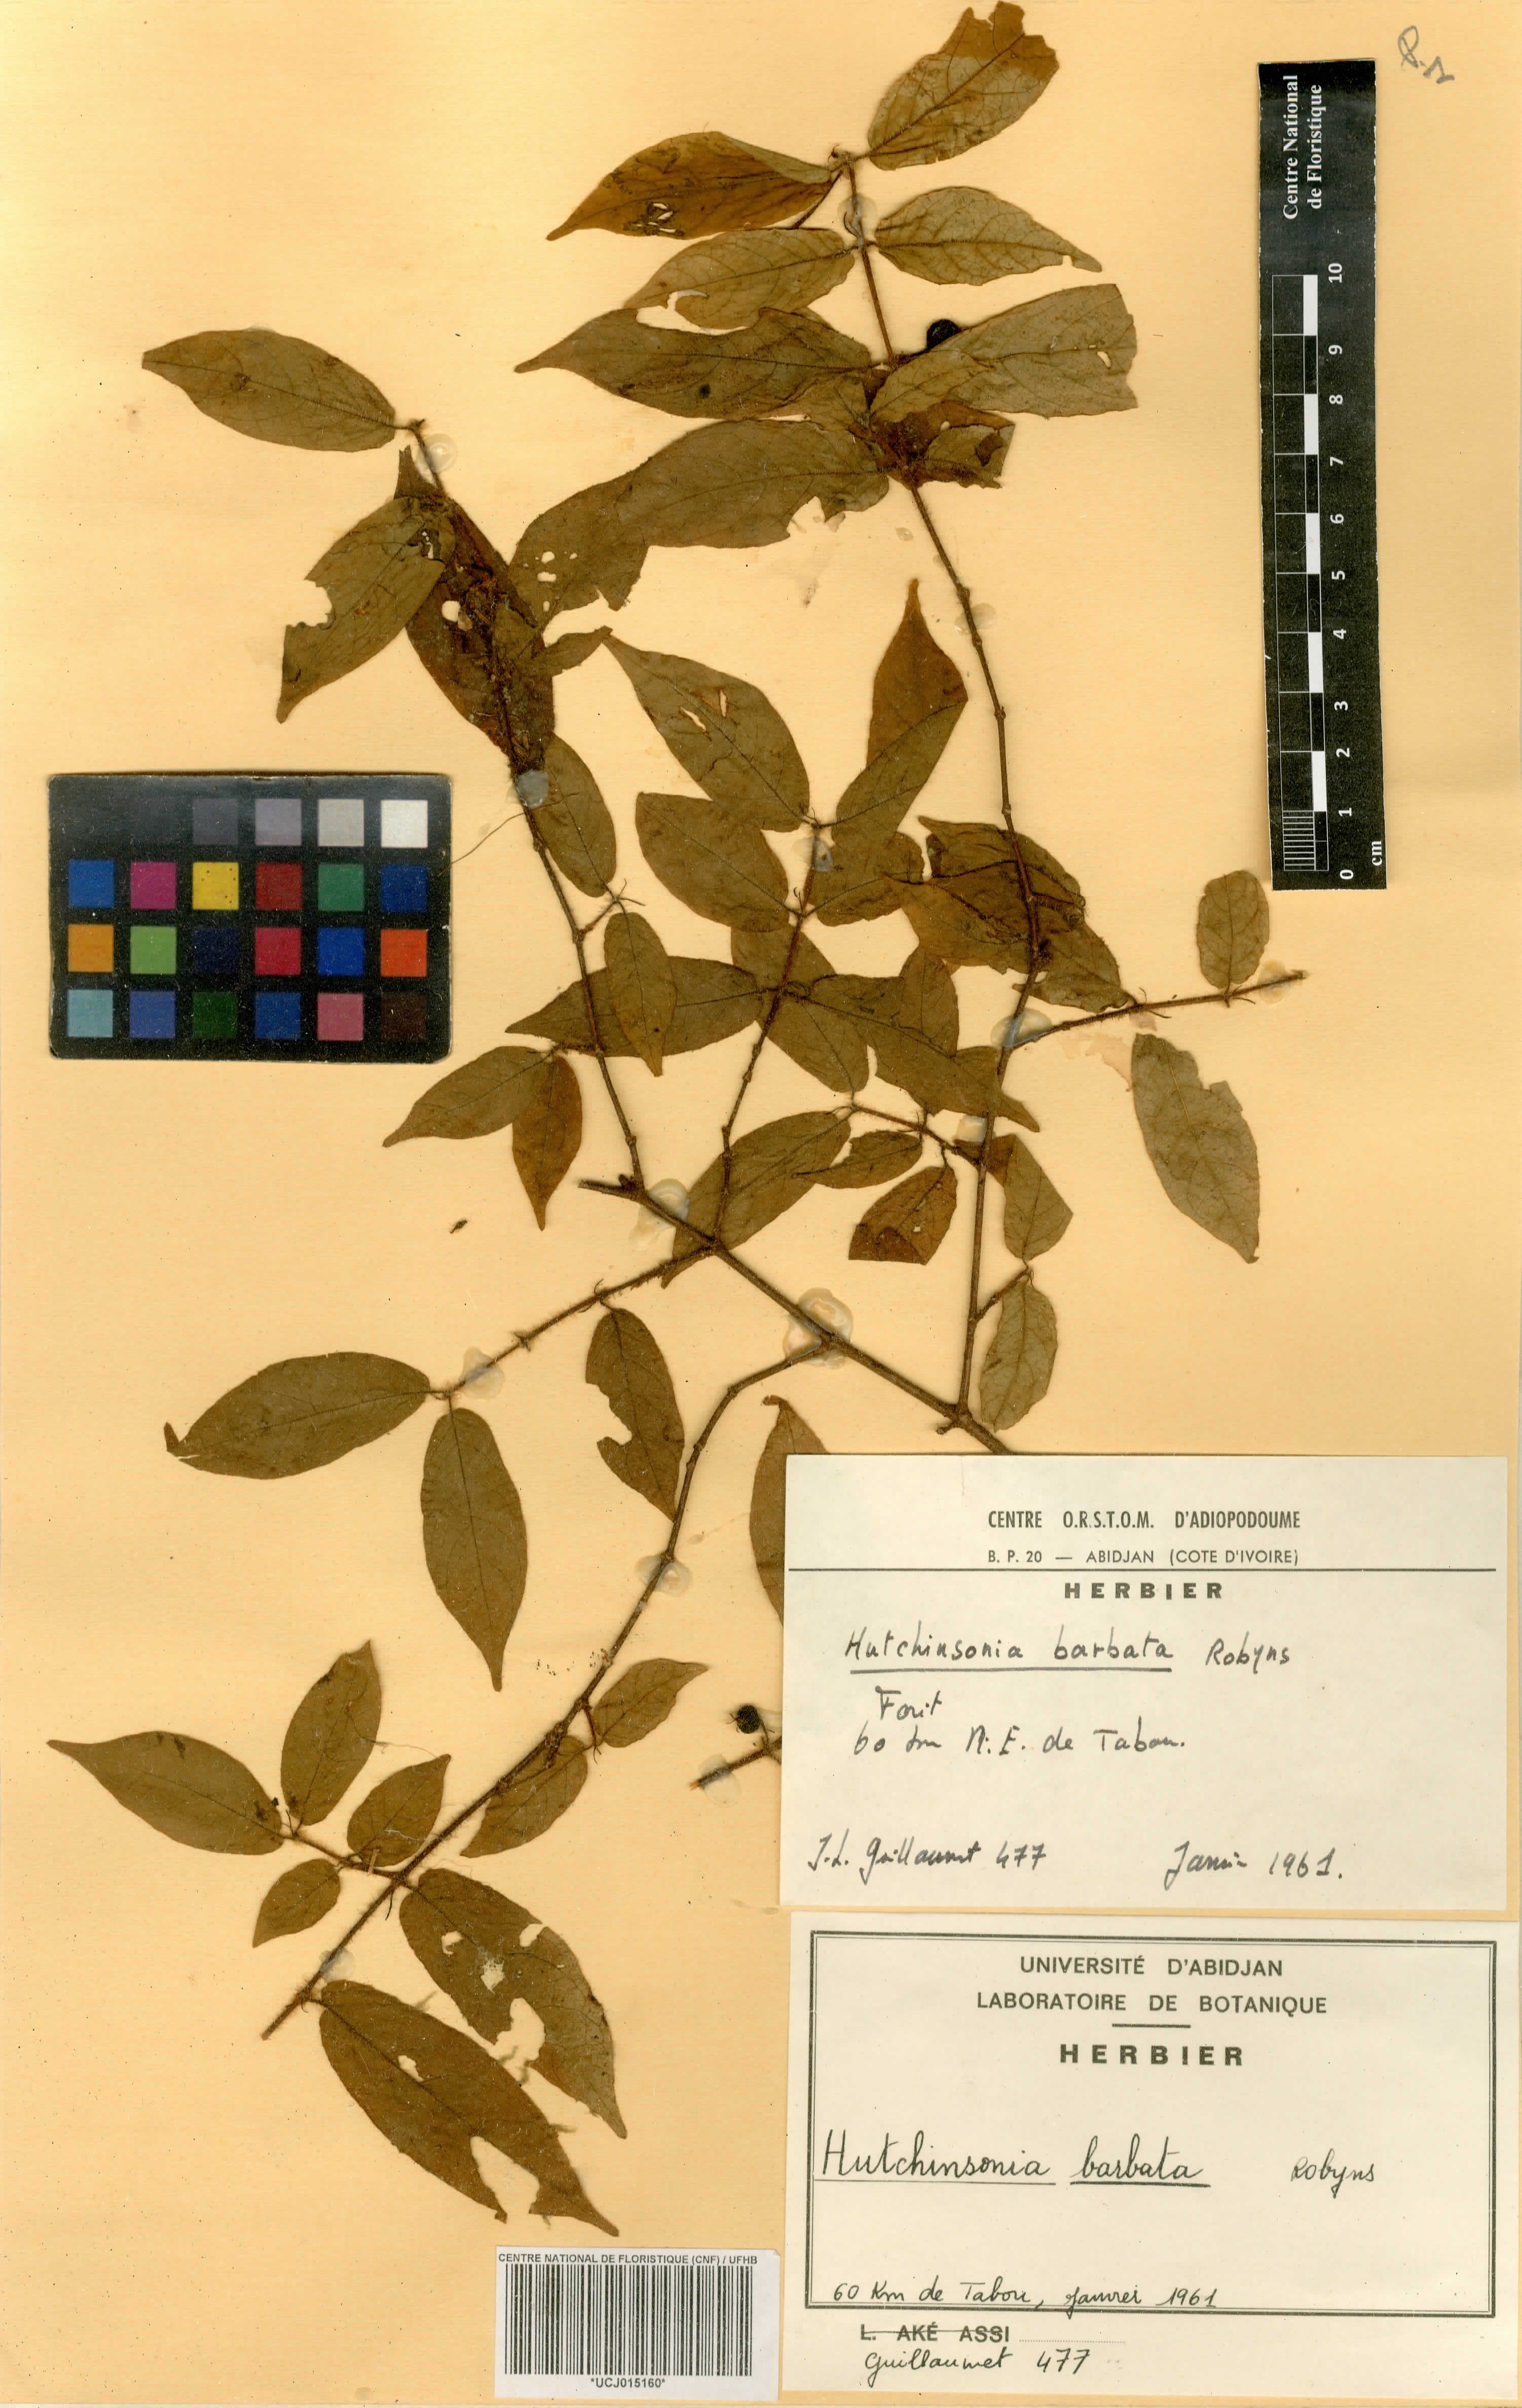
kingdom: Plantae
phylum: Tracheophyta
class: Magnoliopsida
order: Gentianales
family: Rubiaceae
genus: Hutchinsonia
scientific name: Hutchinsonia barbata
